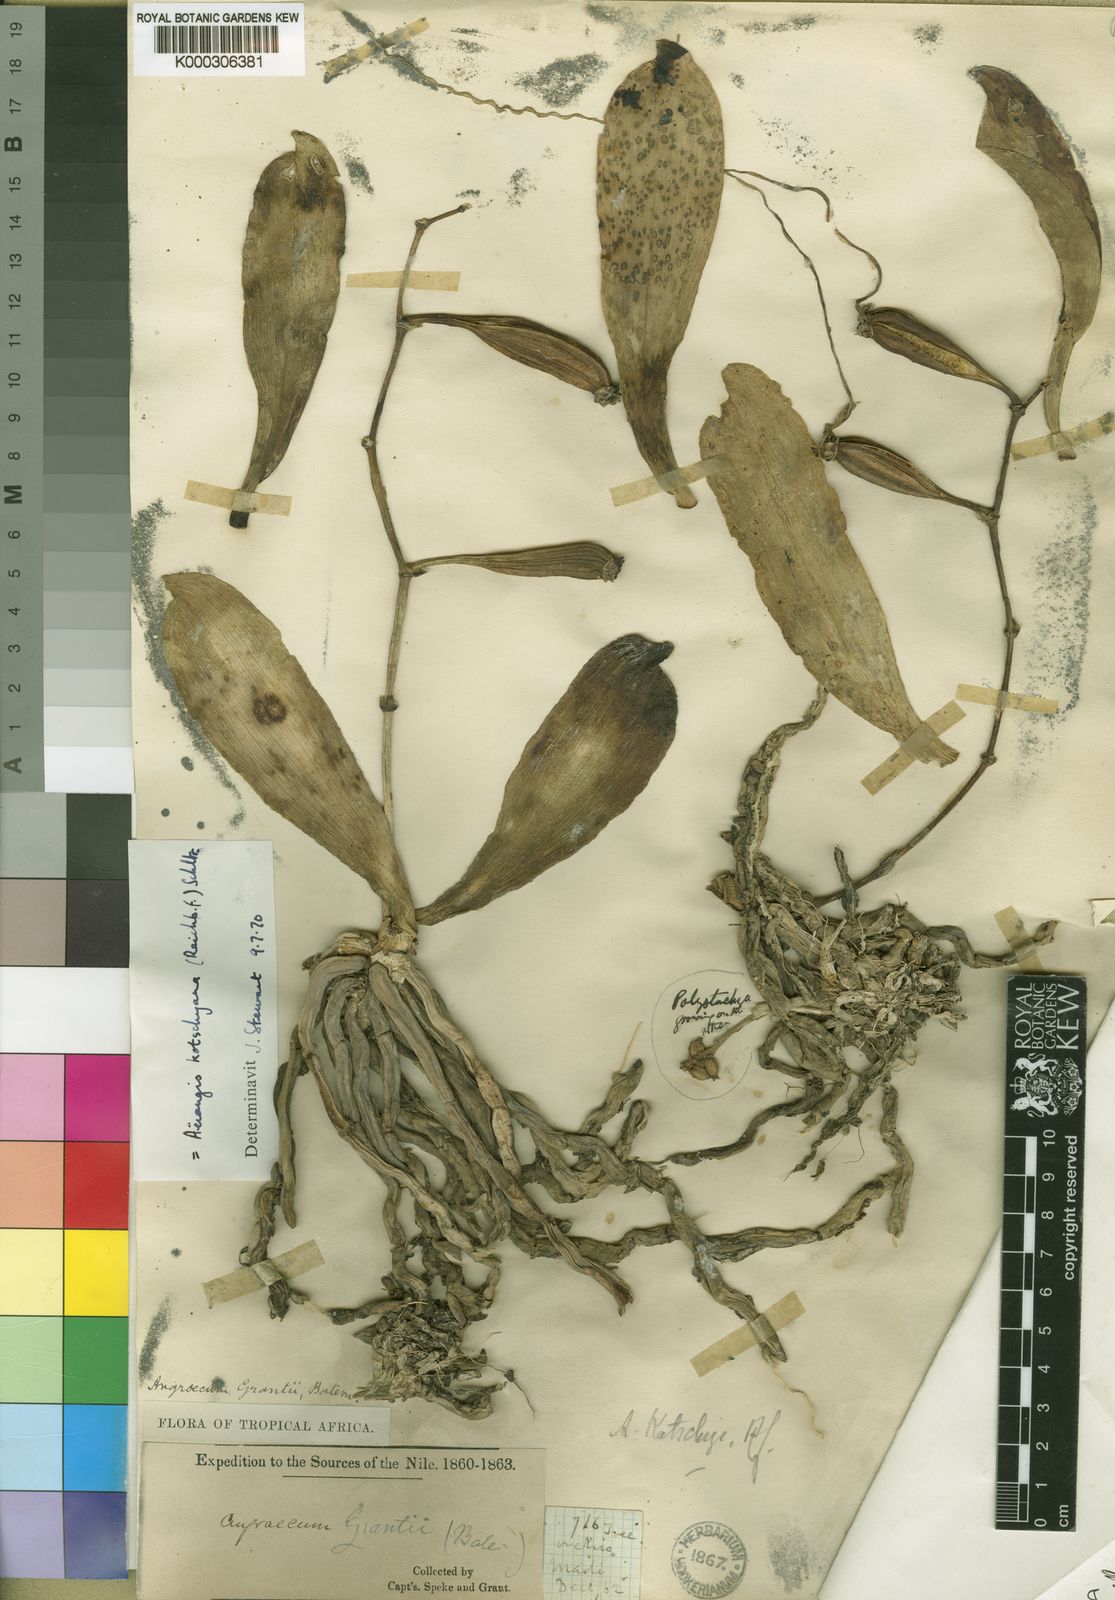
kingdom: Plantae
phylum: Tracheophyta
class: Liliopsida
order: Asparagales
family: Orchidaceae
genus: Aerangis
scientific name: Aerangis kotschyana
